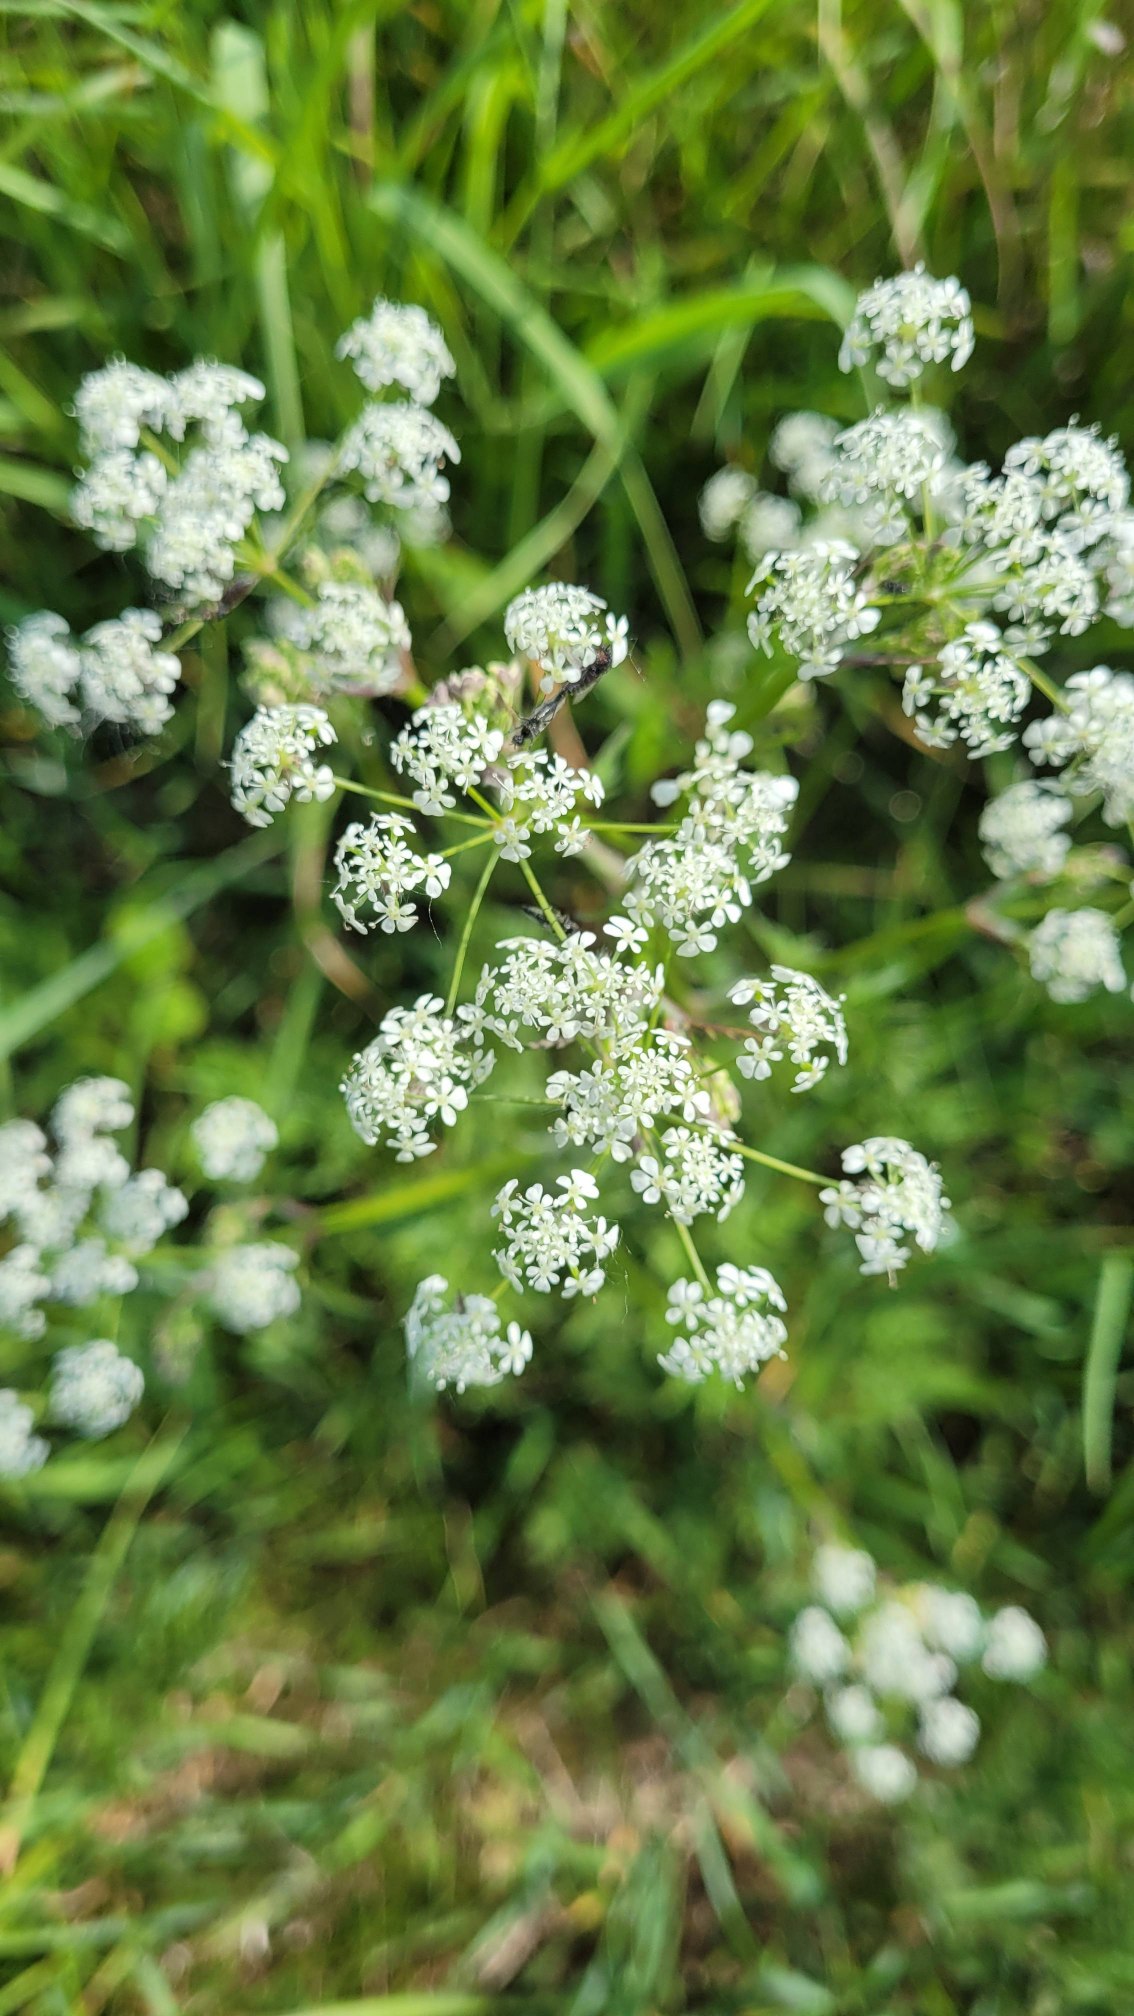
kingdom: Plantae
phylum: Tracheophyta
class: Magnoliopsida
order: Apiales
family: Apiaceae
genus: Anthriscus
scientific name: Anthriscus sylvestris
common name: Vild kørvel
